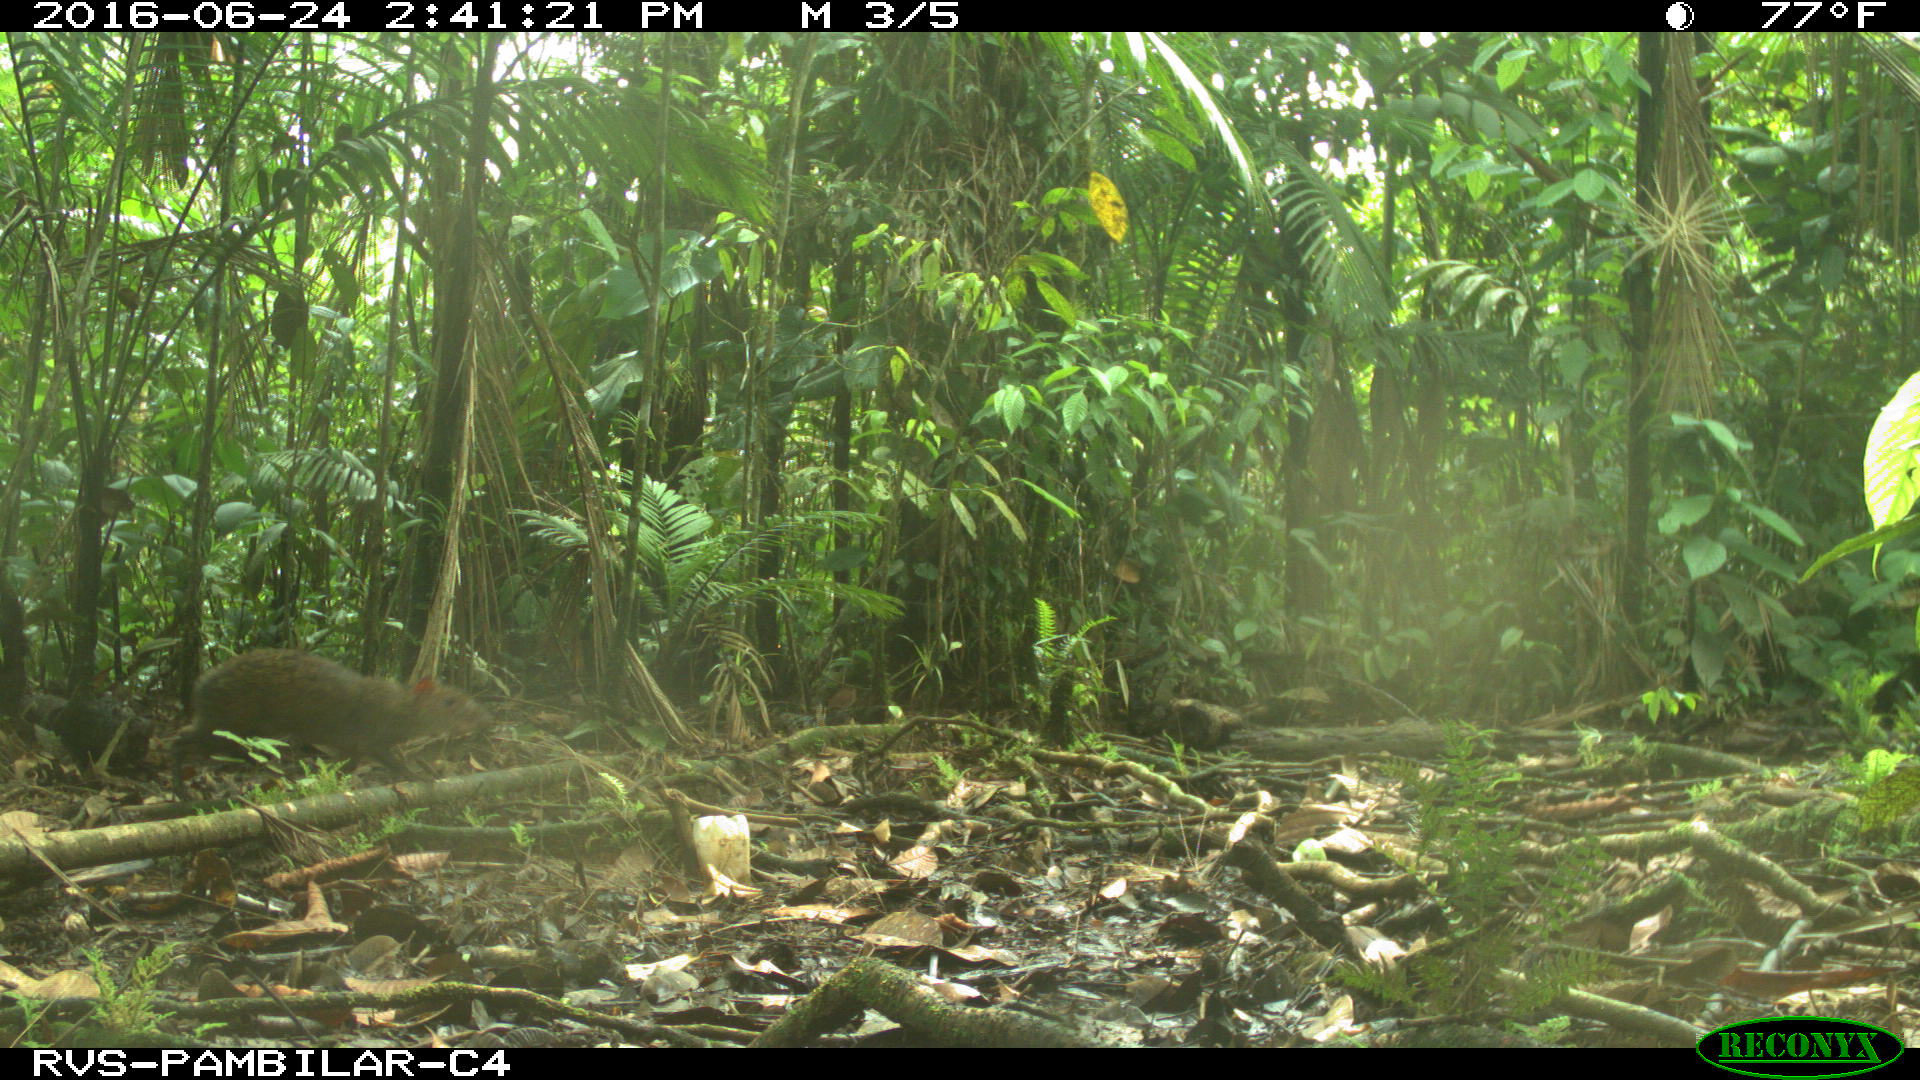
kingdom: Animalia
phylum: Chordata
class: Mammalia
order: Rodentia
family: Dasyproctidae
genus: Dasyprocta
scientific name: Dasyprocta punctata
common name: Central american agouti
